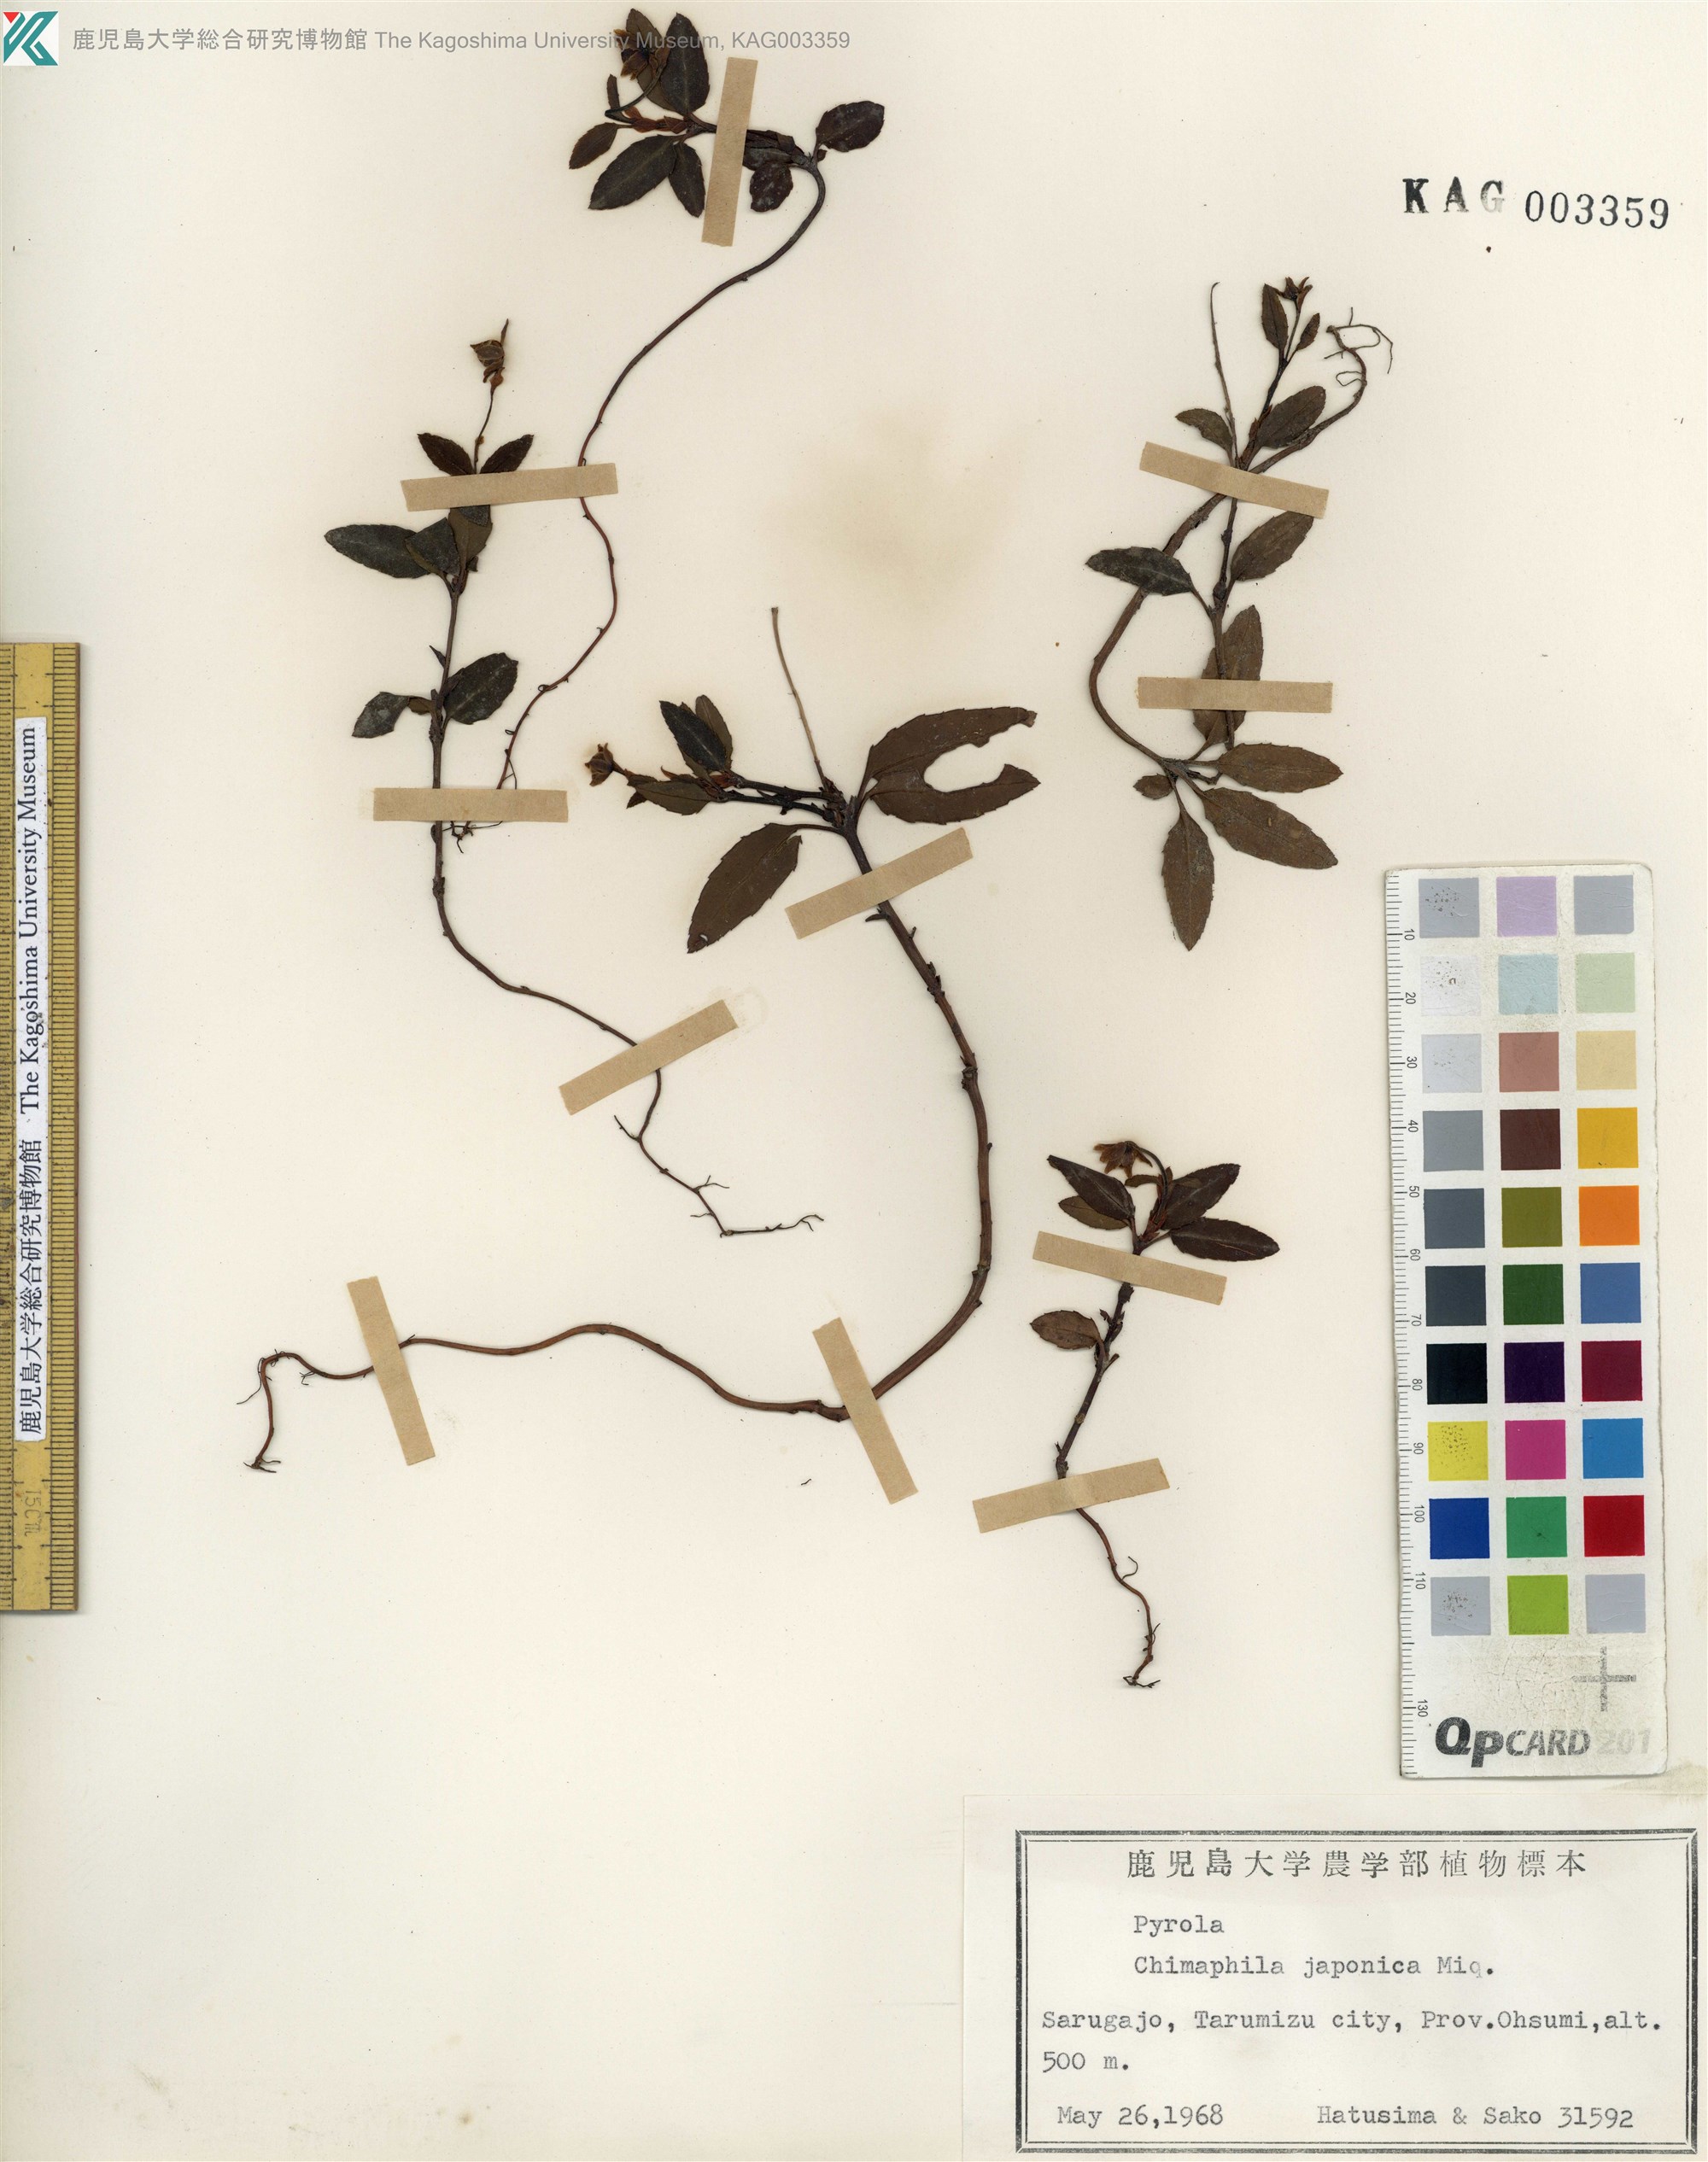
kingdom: Plantae
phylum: Tracheophyta
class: Magnoliopsida
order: Ericales
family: Ericaceae
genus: Chimaphila
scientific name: Chimaphila japonica
